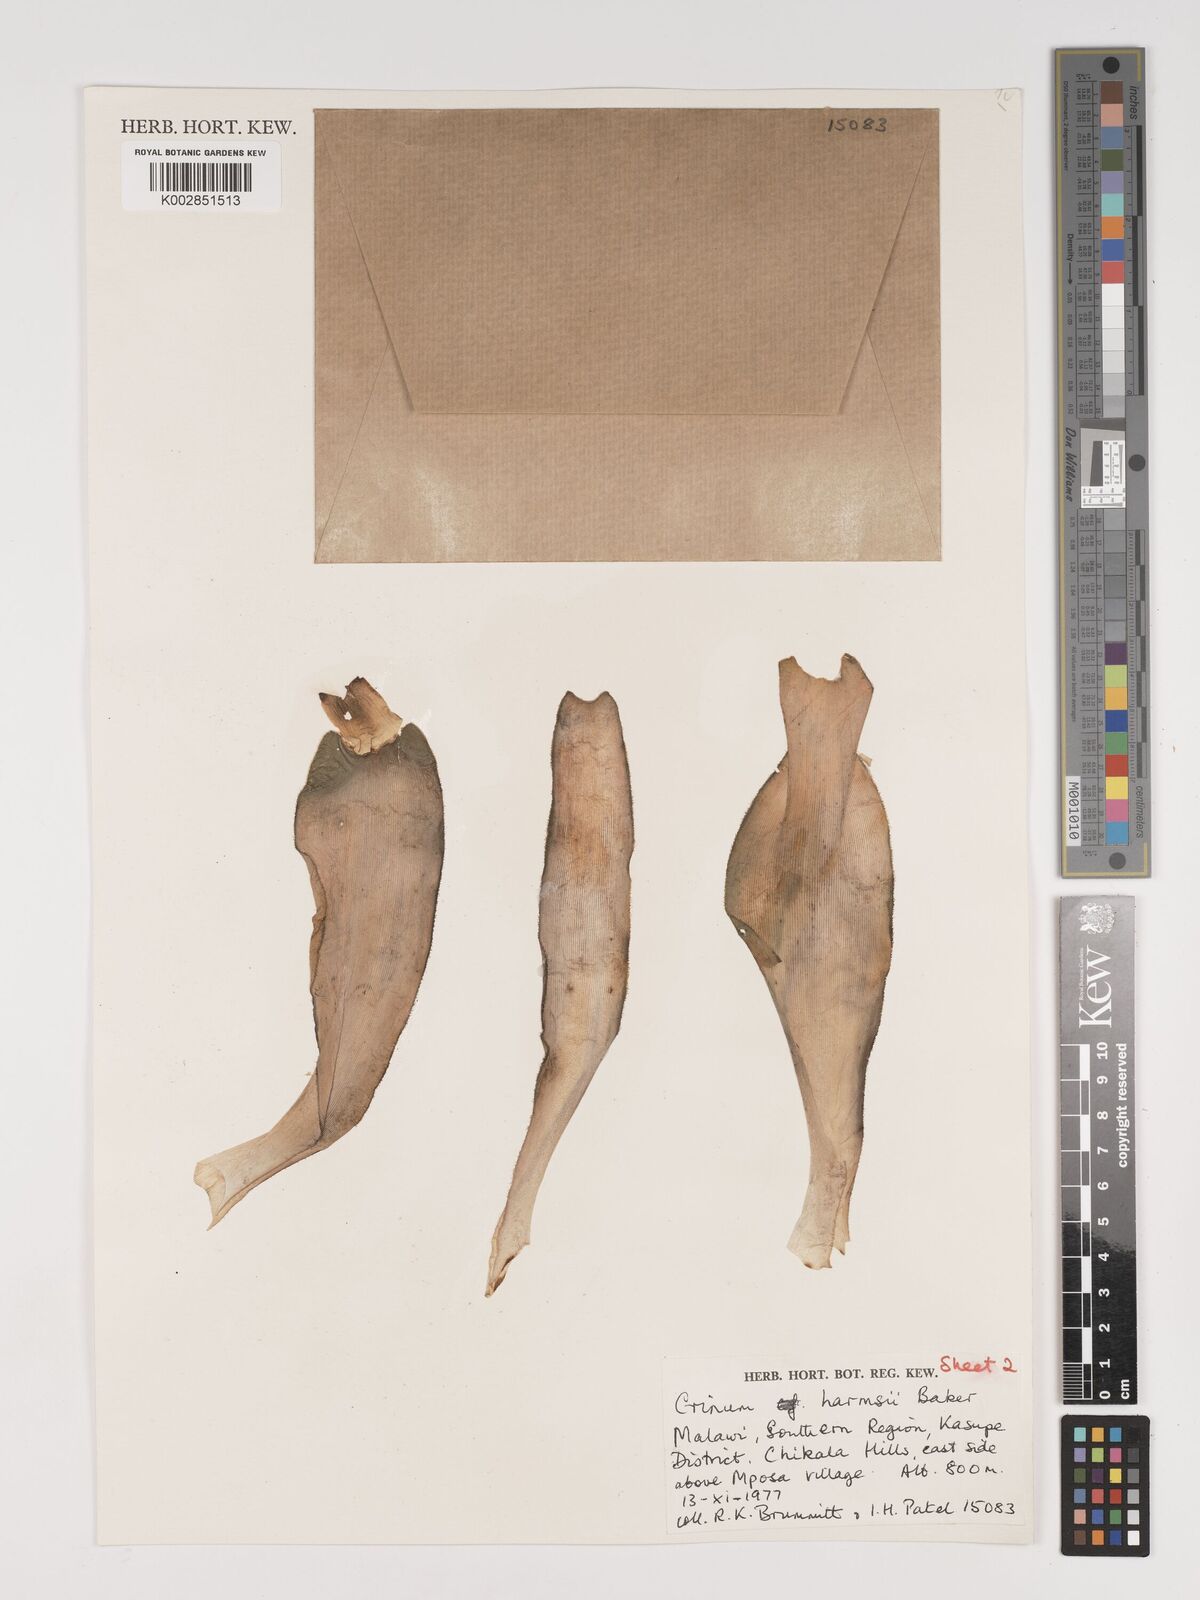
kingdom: Plantae
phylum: Tracheophyta
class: Liliopsida
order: Asparagales
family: Amaryllidaceae
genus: Crinum
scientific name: Crinum harmsii
